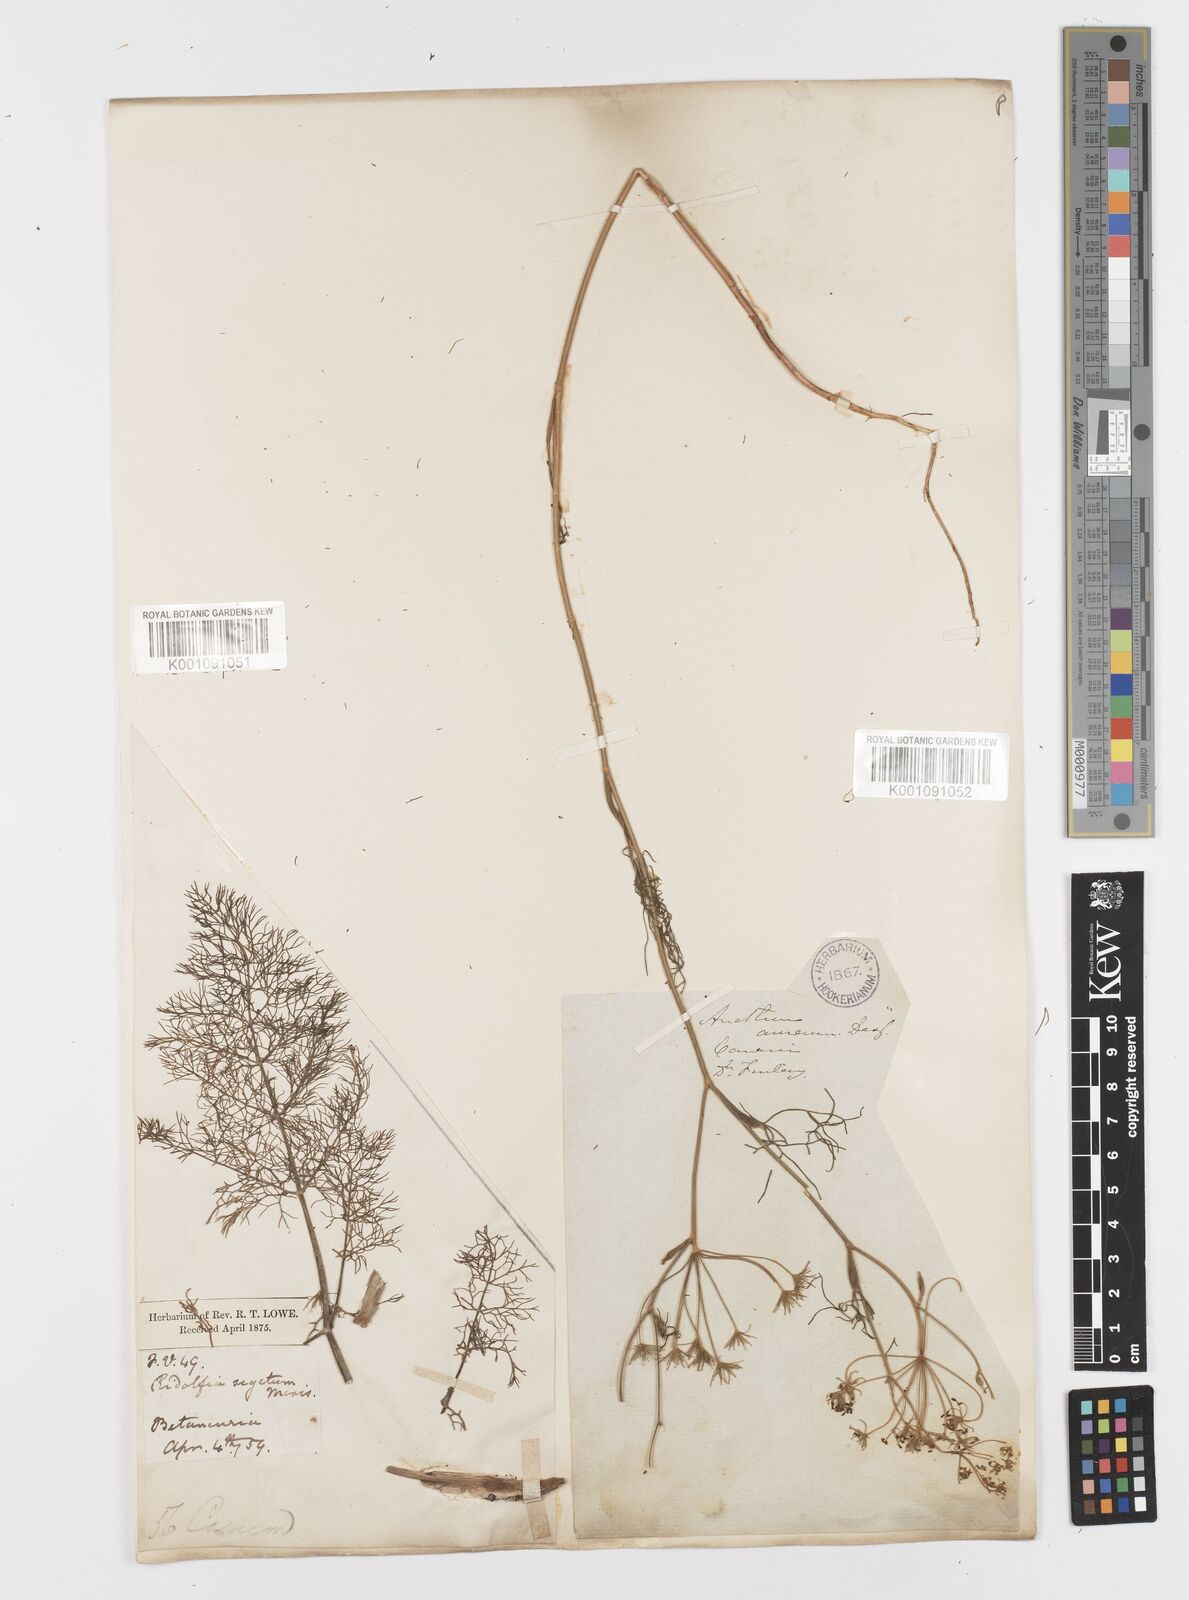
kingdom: Plantae
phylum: Tracheophyta
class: Magnoliopsida
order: Apiales
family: Apiaceae
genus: Anethum
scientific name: Anethum ridolfia
